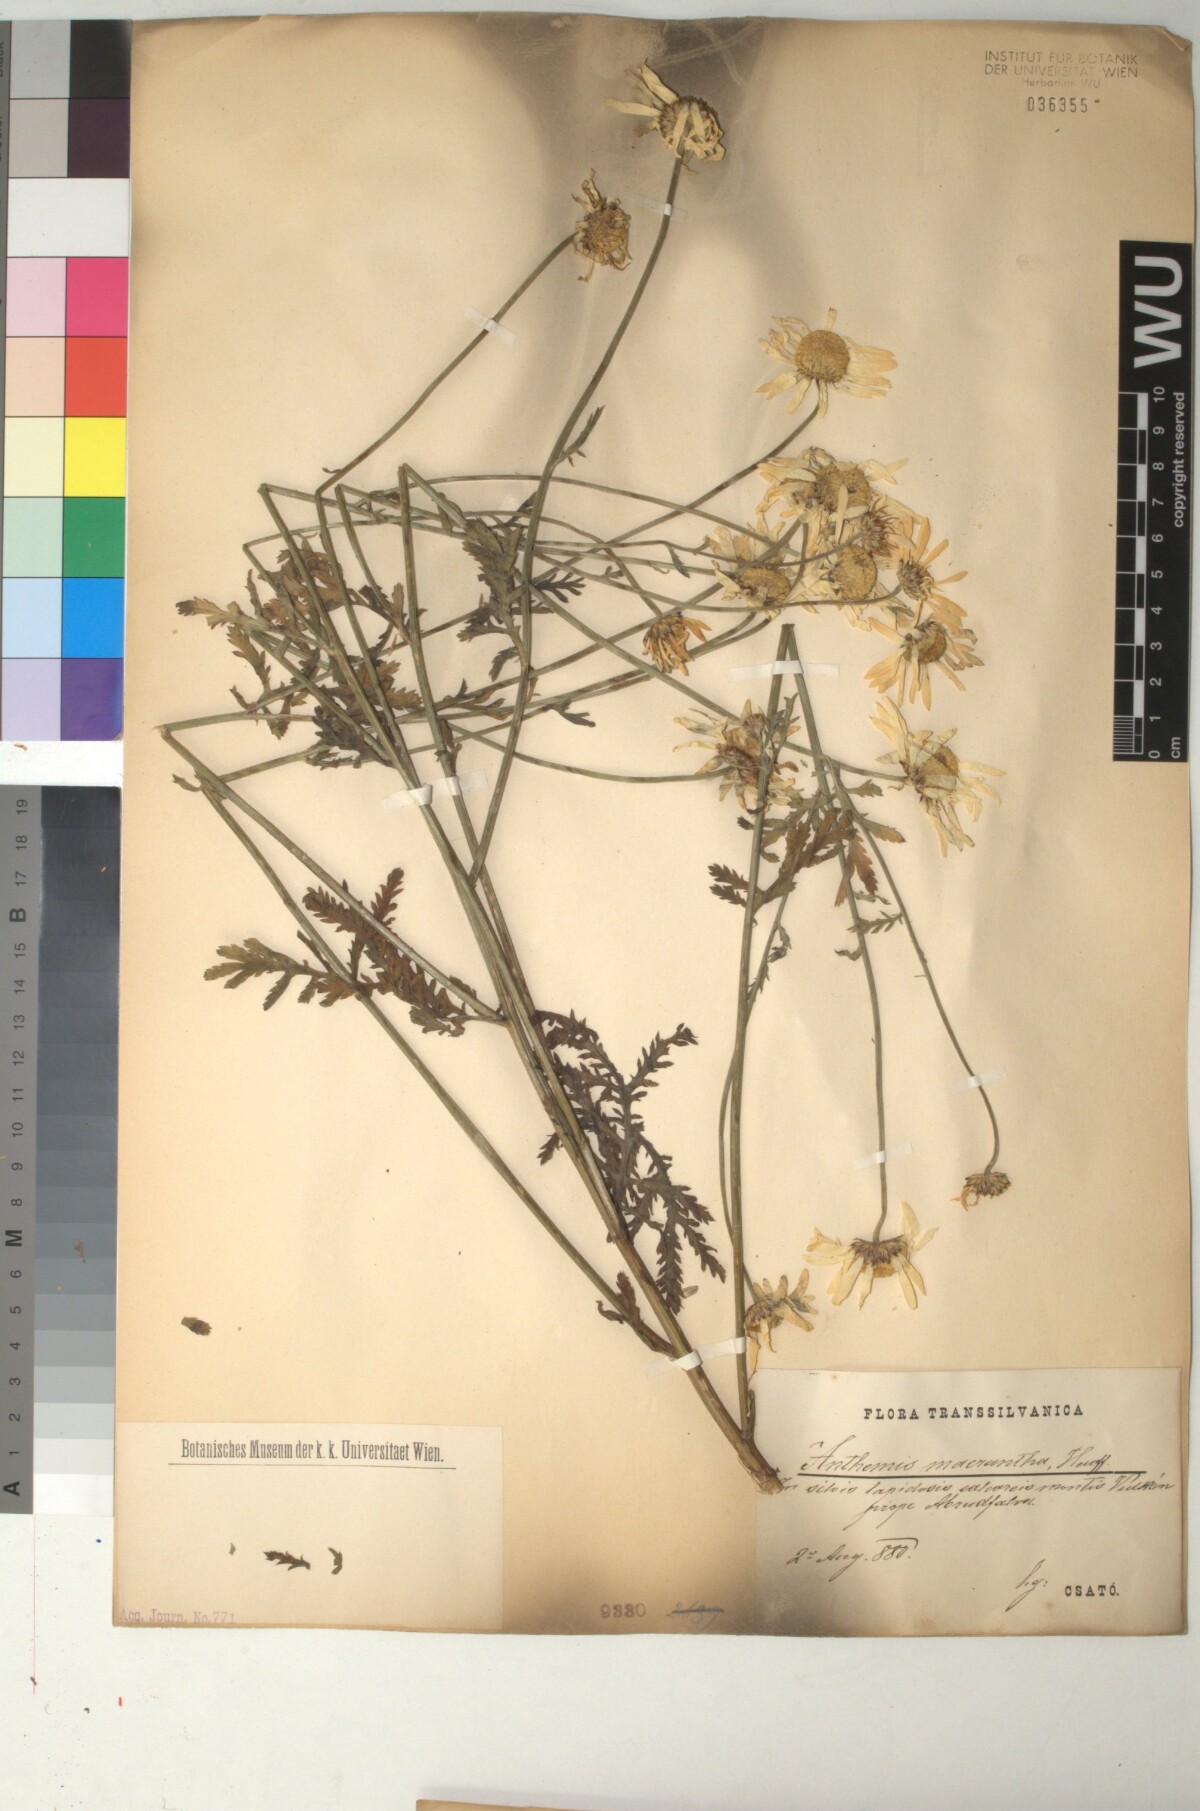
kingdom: Plantae
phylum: Tracheophyta
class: Magnoliopsida
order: Asterales
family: Asteraceae
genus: Cota
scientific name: Cota macrantha
